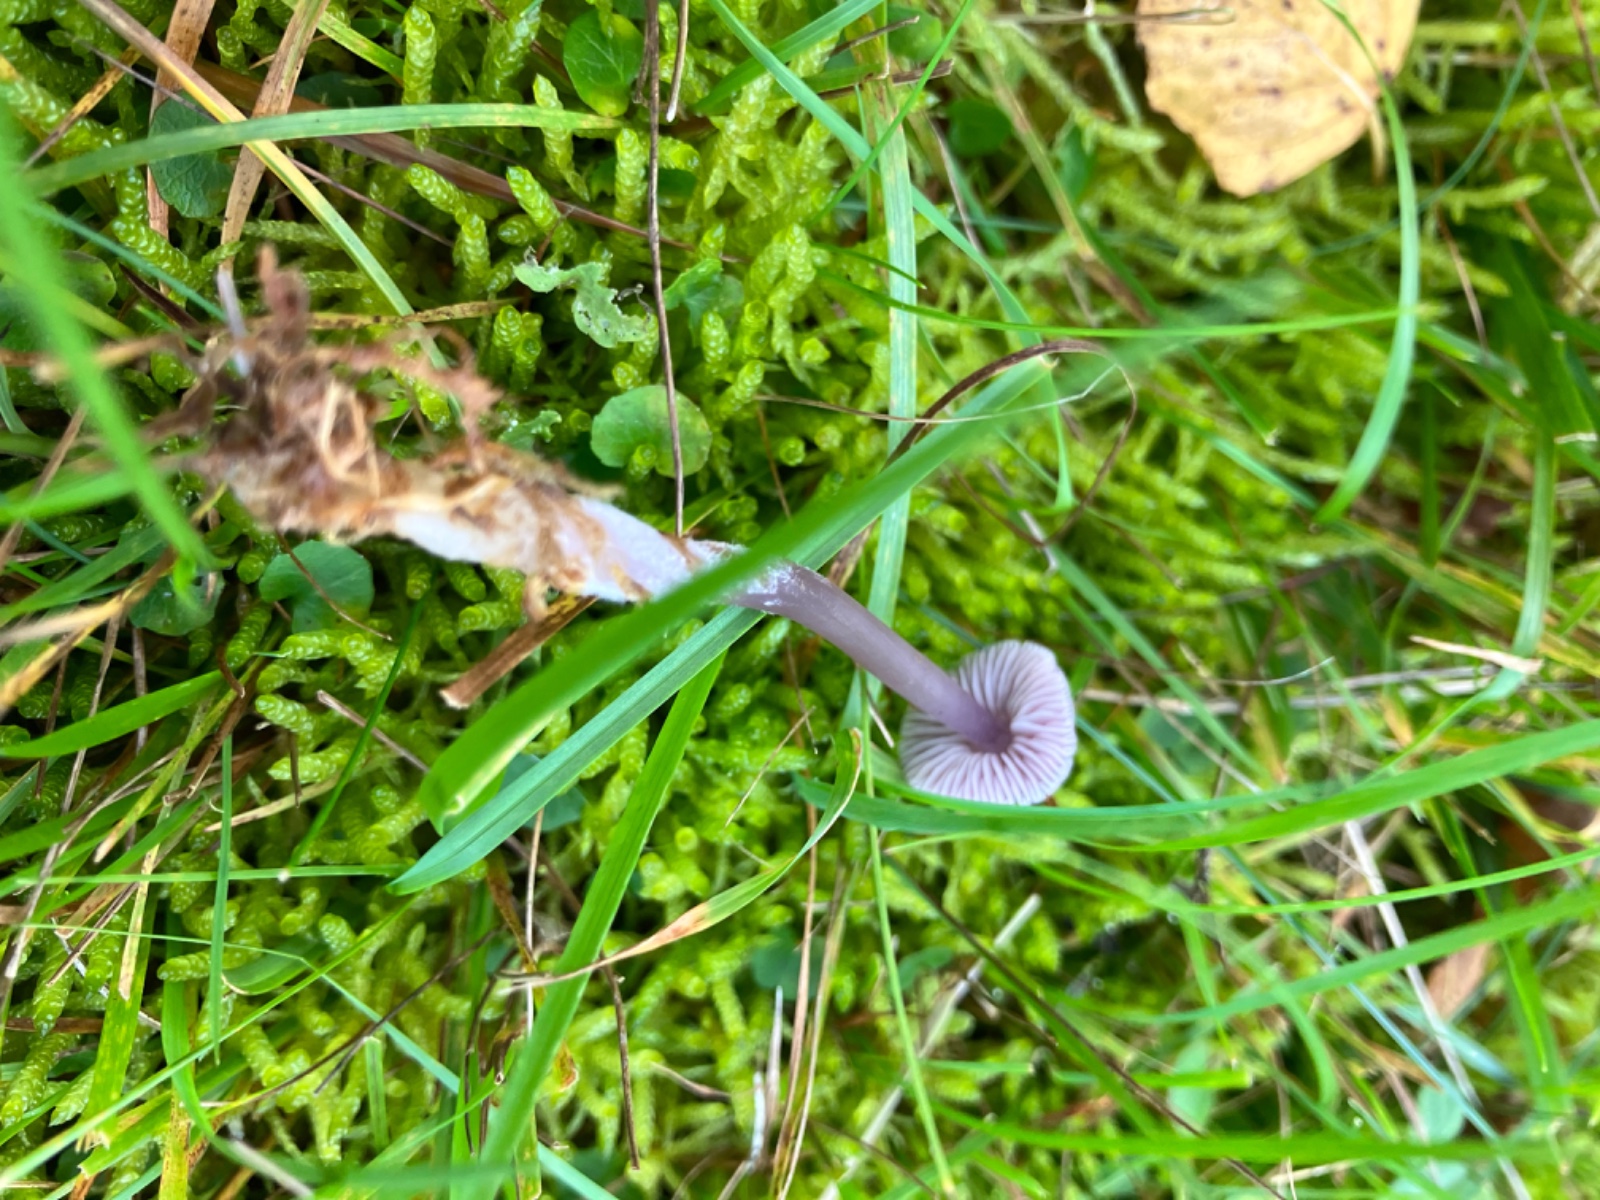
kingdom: Fungi
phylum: Basidiomycota
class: Agaricomycetes
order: Agaricales
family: Mycenaceae
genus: Mycena
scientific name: Mycena
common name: huesvamp
